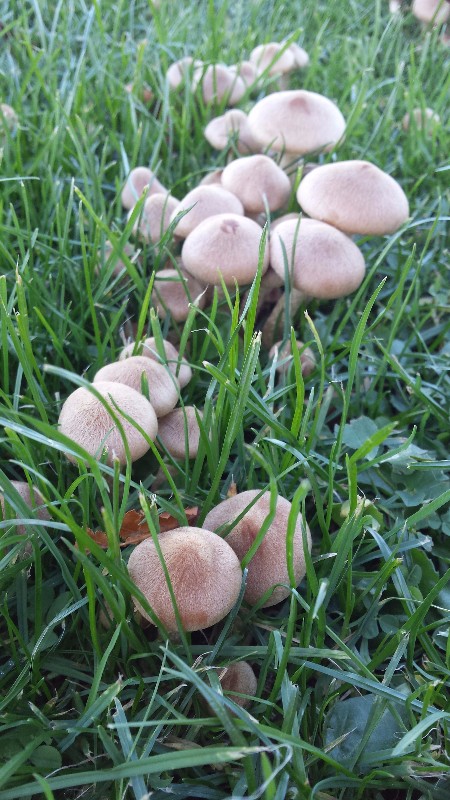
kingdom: Fungi
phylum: Basidiomycota
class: Agaricomycetes
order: Agaricales
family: Psathyrellaceae
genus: Lacrymaria
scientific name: Lacrymaria lacrymabunda
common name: grædende mørkhat
